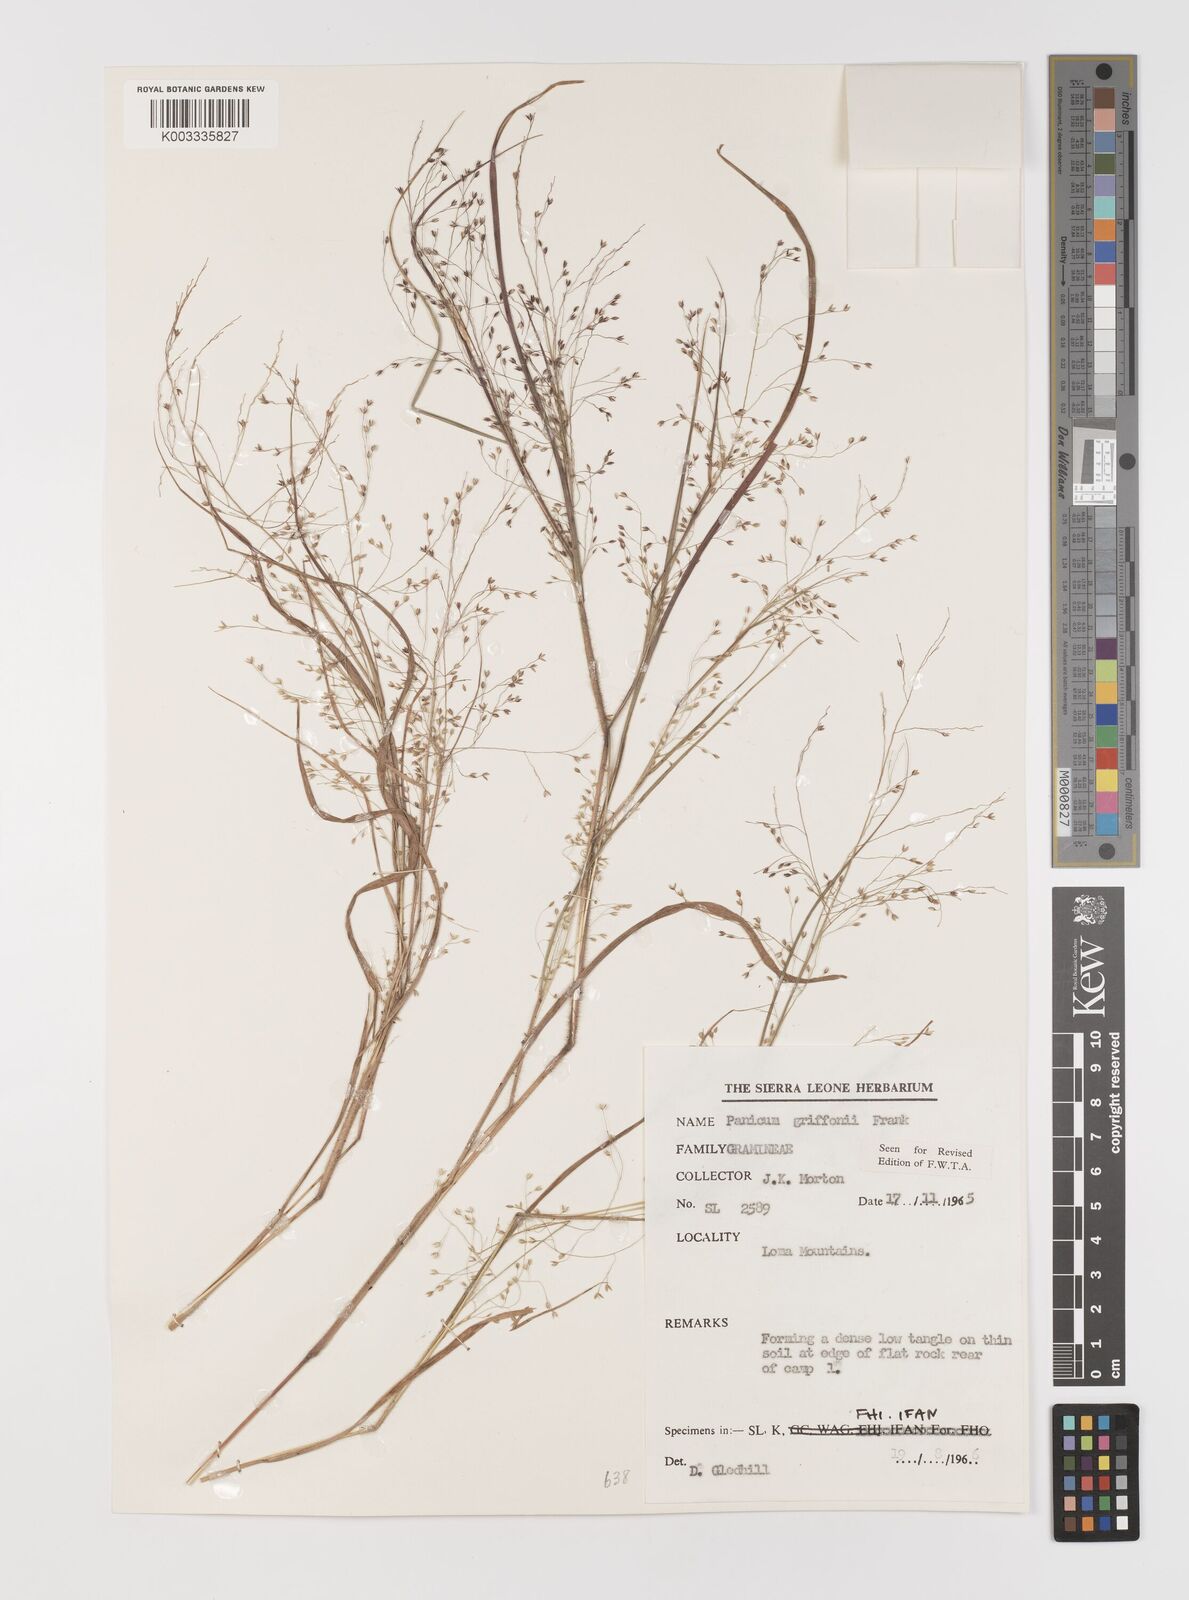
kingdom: Plantae
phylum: Tracheophyta
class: Liliopsida
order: Poales
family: Poaceae
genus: Panicum
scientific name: Panicum griffonii
